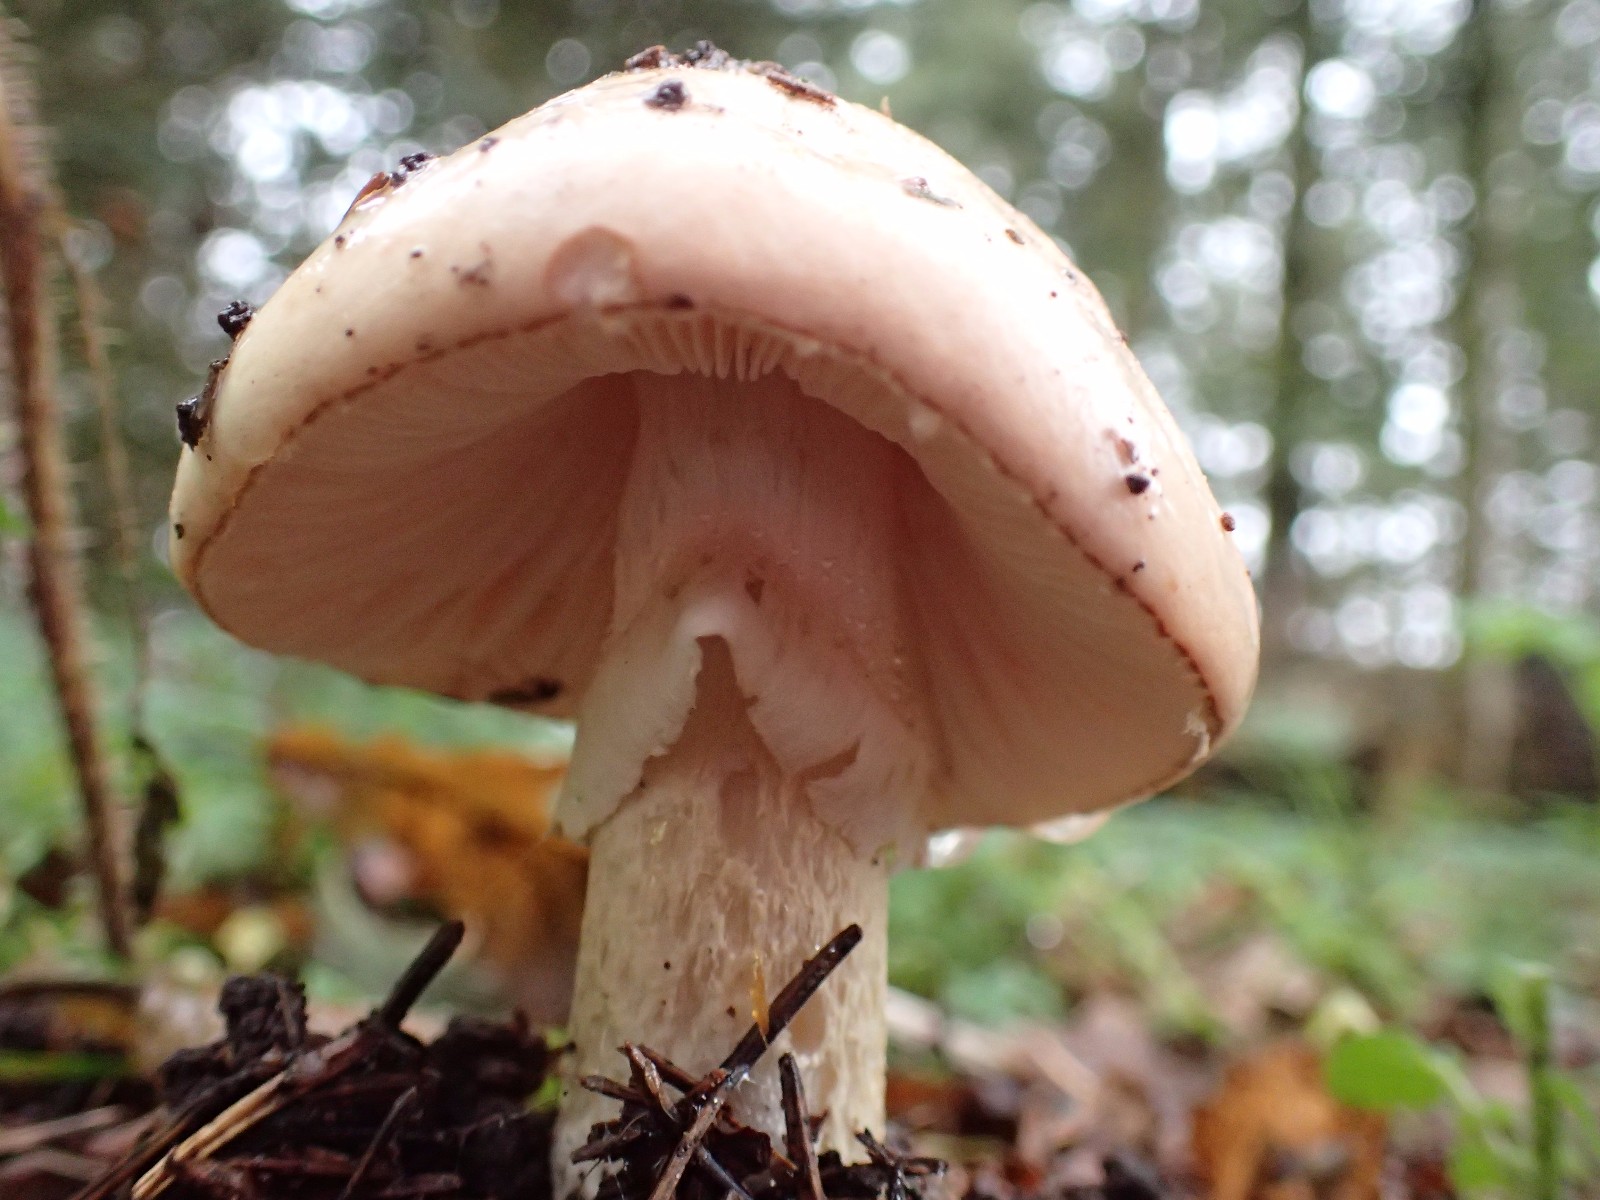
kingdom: Fungi
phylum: Basidiomycota
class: Agaricomycetes
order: Agaricales
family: Amanitaceae
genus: Limacellopsis
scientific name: Limacellopsis guttata
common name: tåre-snekkehat
